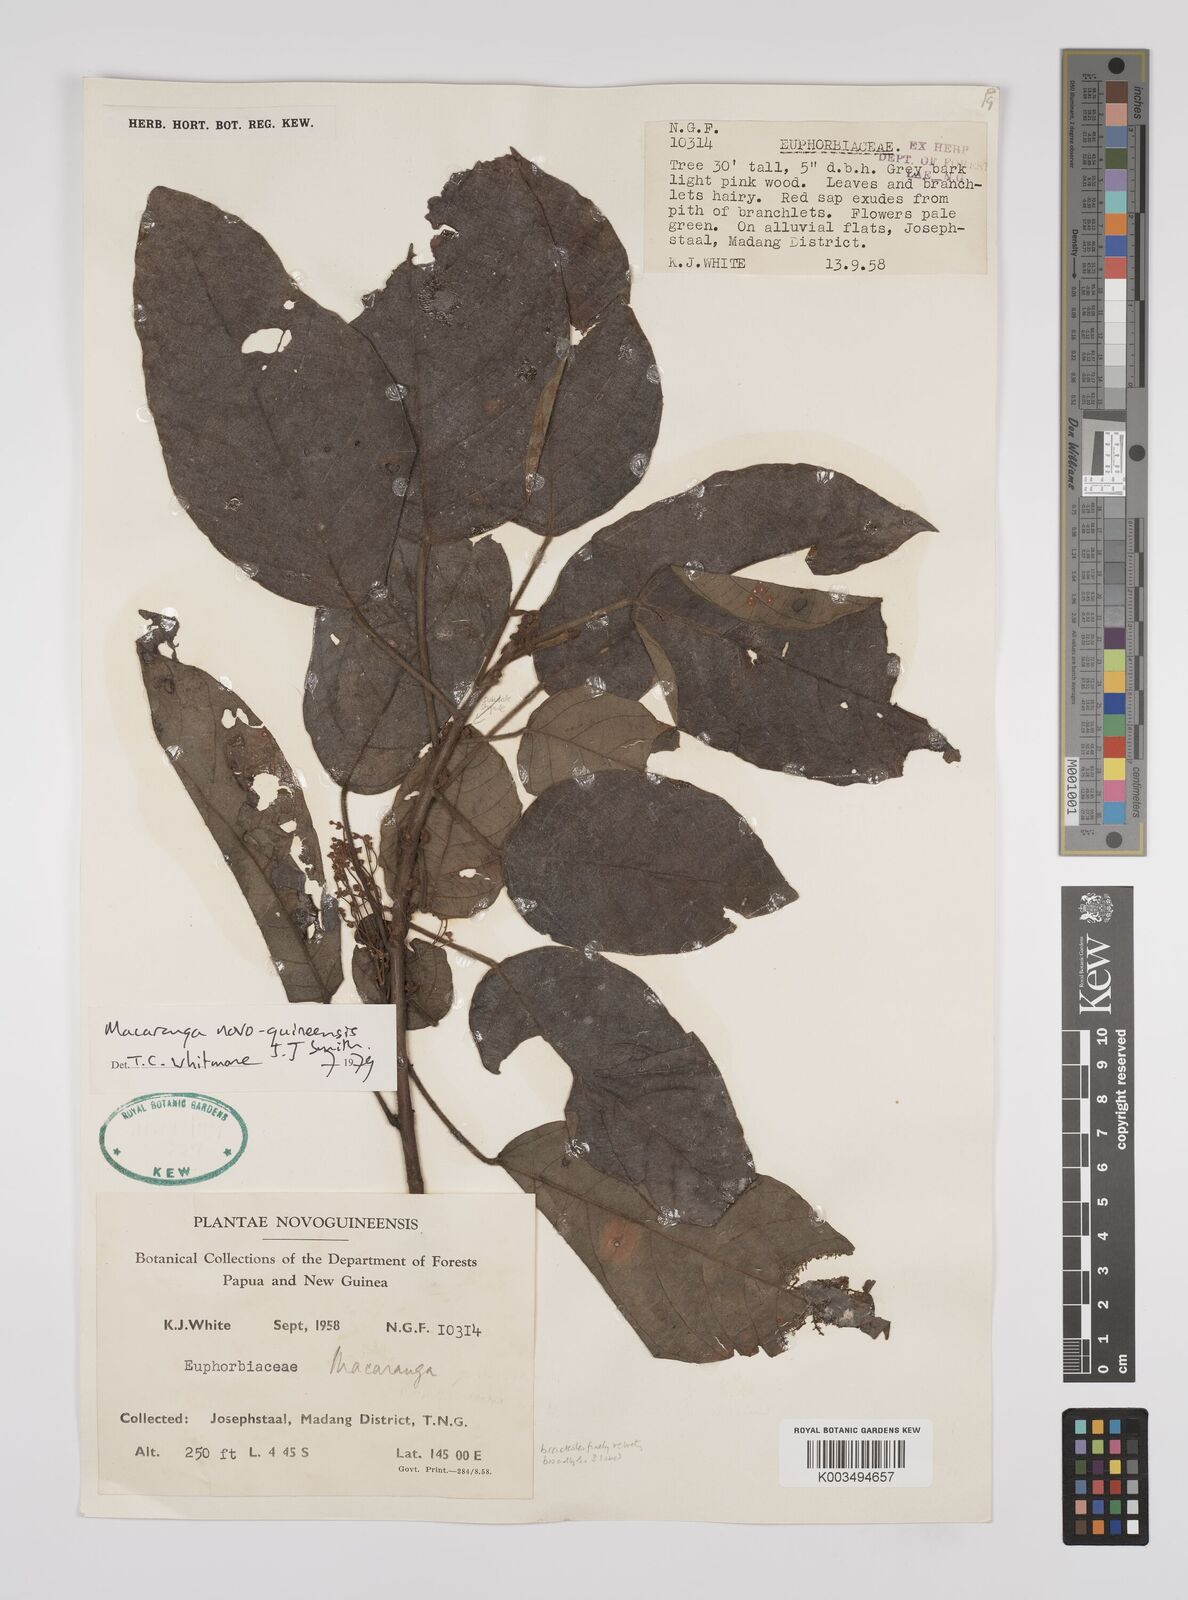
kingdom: Plantae
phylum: Tracheophyta
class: Magnoliopsida
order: Malpighiales
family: Euphorbiaceae
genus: Macaranga
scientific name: Macaranga novoguineensis
